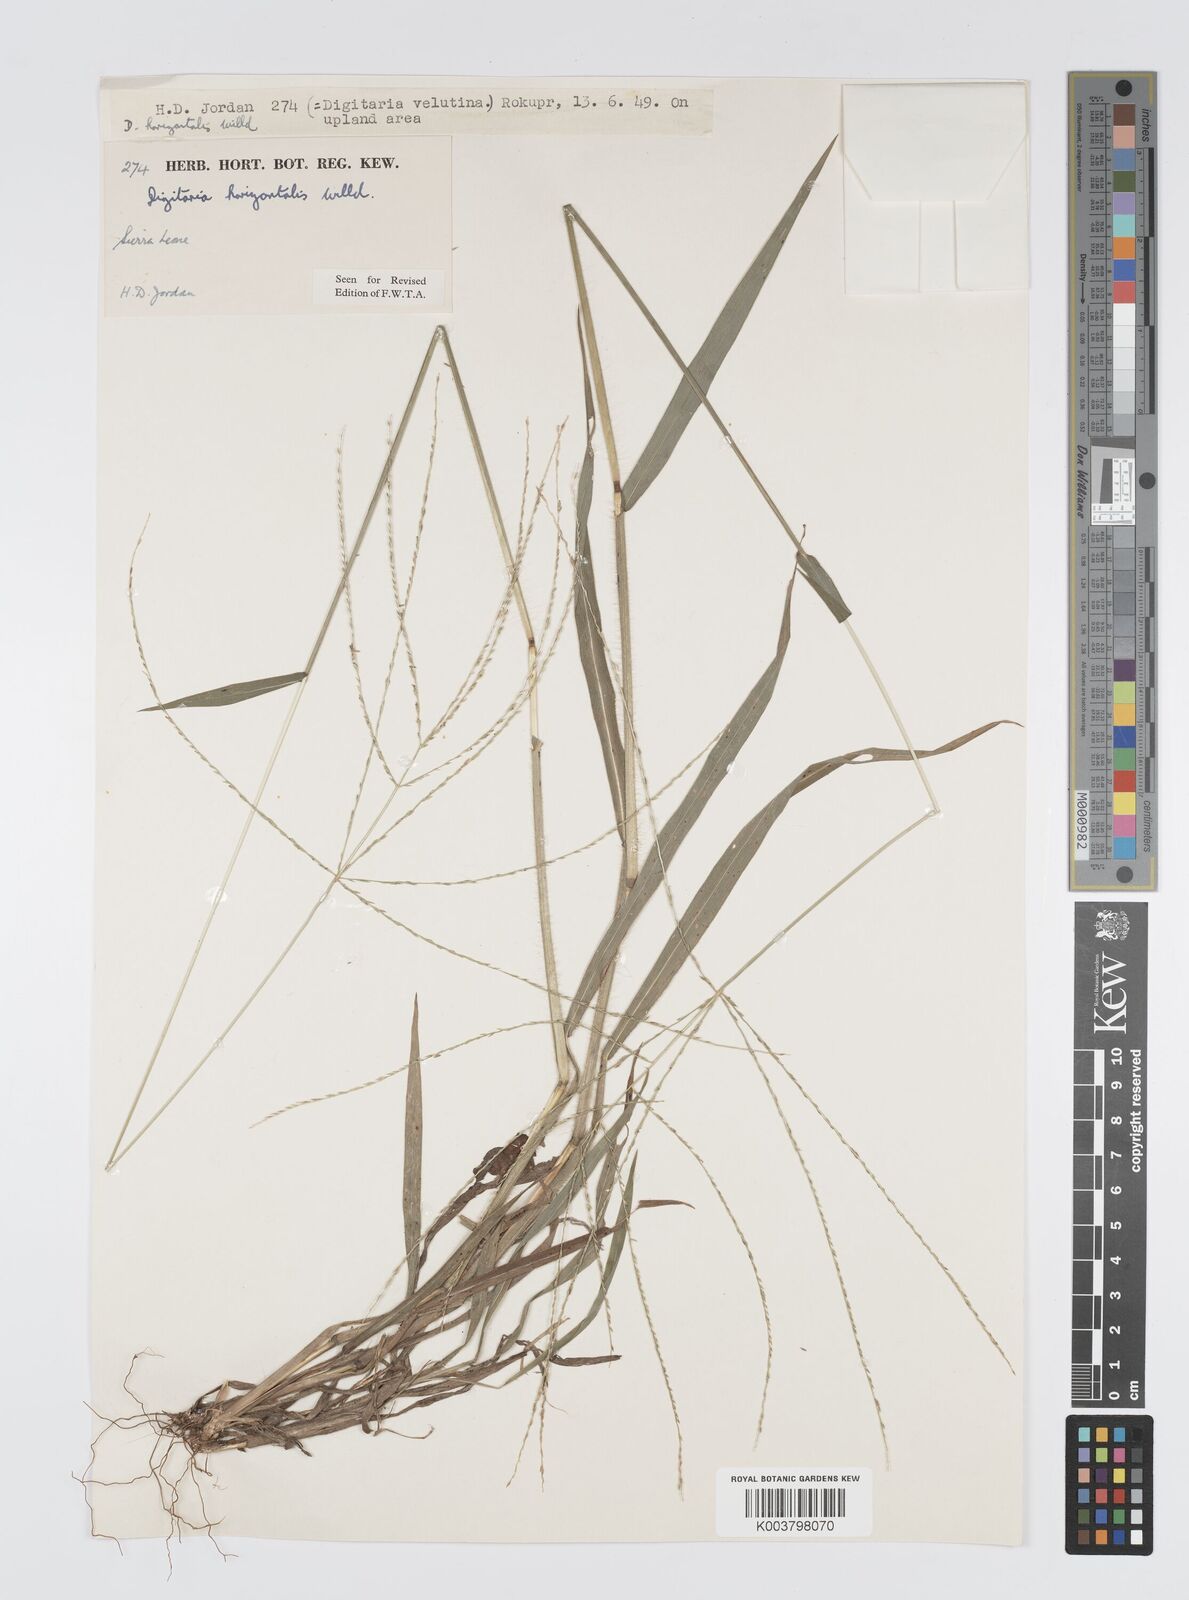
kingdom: Plantae
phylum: Tracheophyta
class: Liliopsida
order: Poales
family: Poaceae
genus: Digitaria
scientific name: Digitaria horizontalis
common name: Jamaican crabgrass
